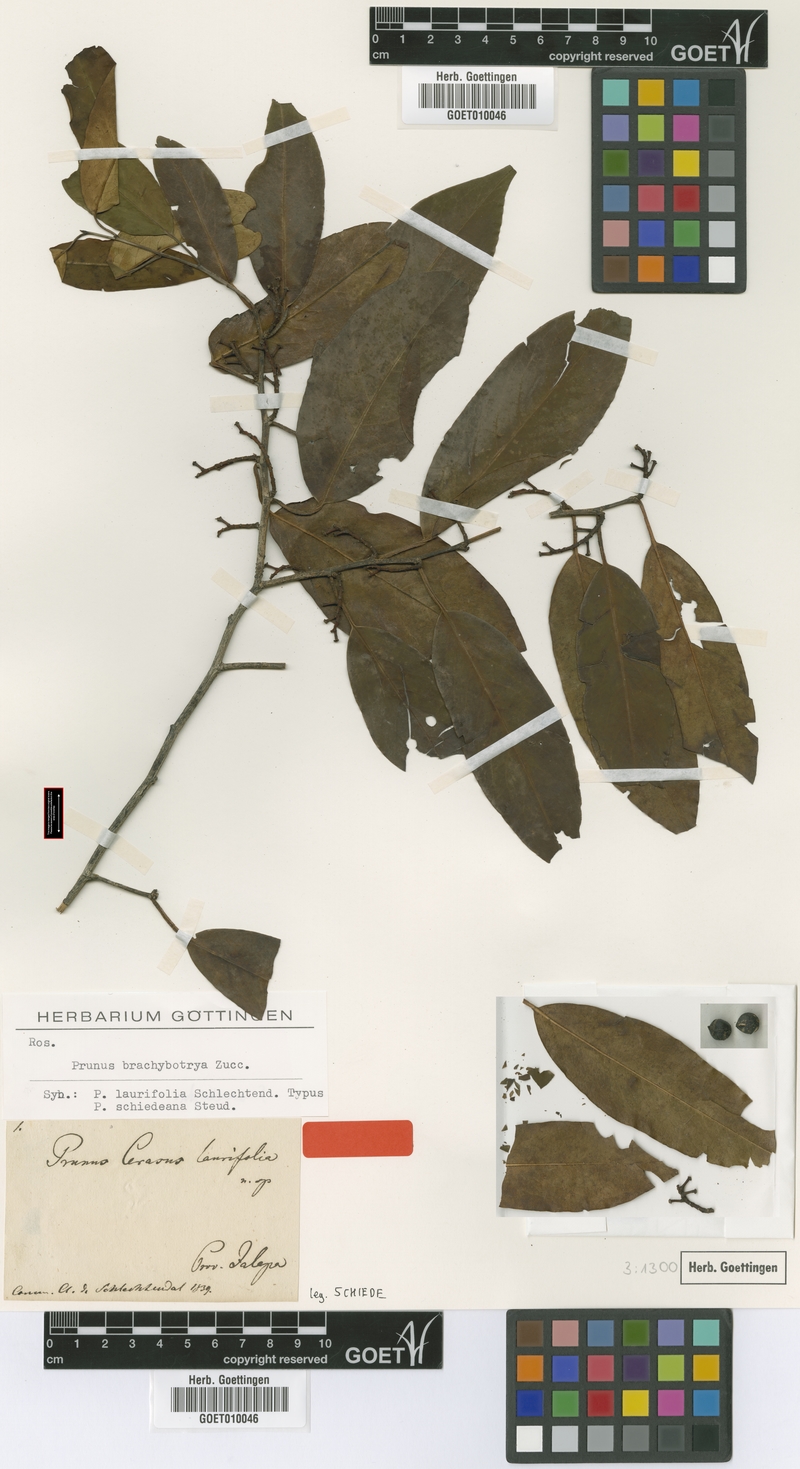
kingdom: Plantae
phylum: Tracheophyta
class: Magnoliopsida
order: Rosales
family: Rosaceae
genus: Prunus
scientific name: Prunus brachybotrya
